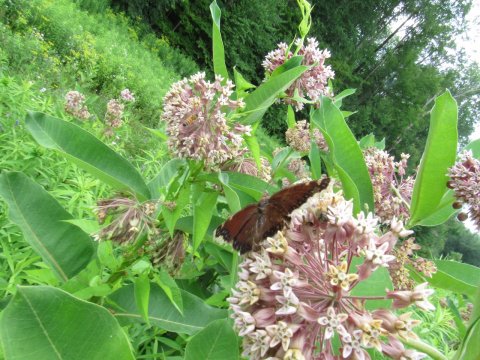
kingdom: Animalia
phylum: Arthropoda
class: Insecta
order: Lepidoptera
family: Nymphalidae
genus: Nymphalis
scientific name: Nymphalis antiopa
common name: Mourning Cloak
